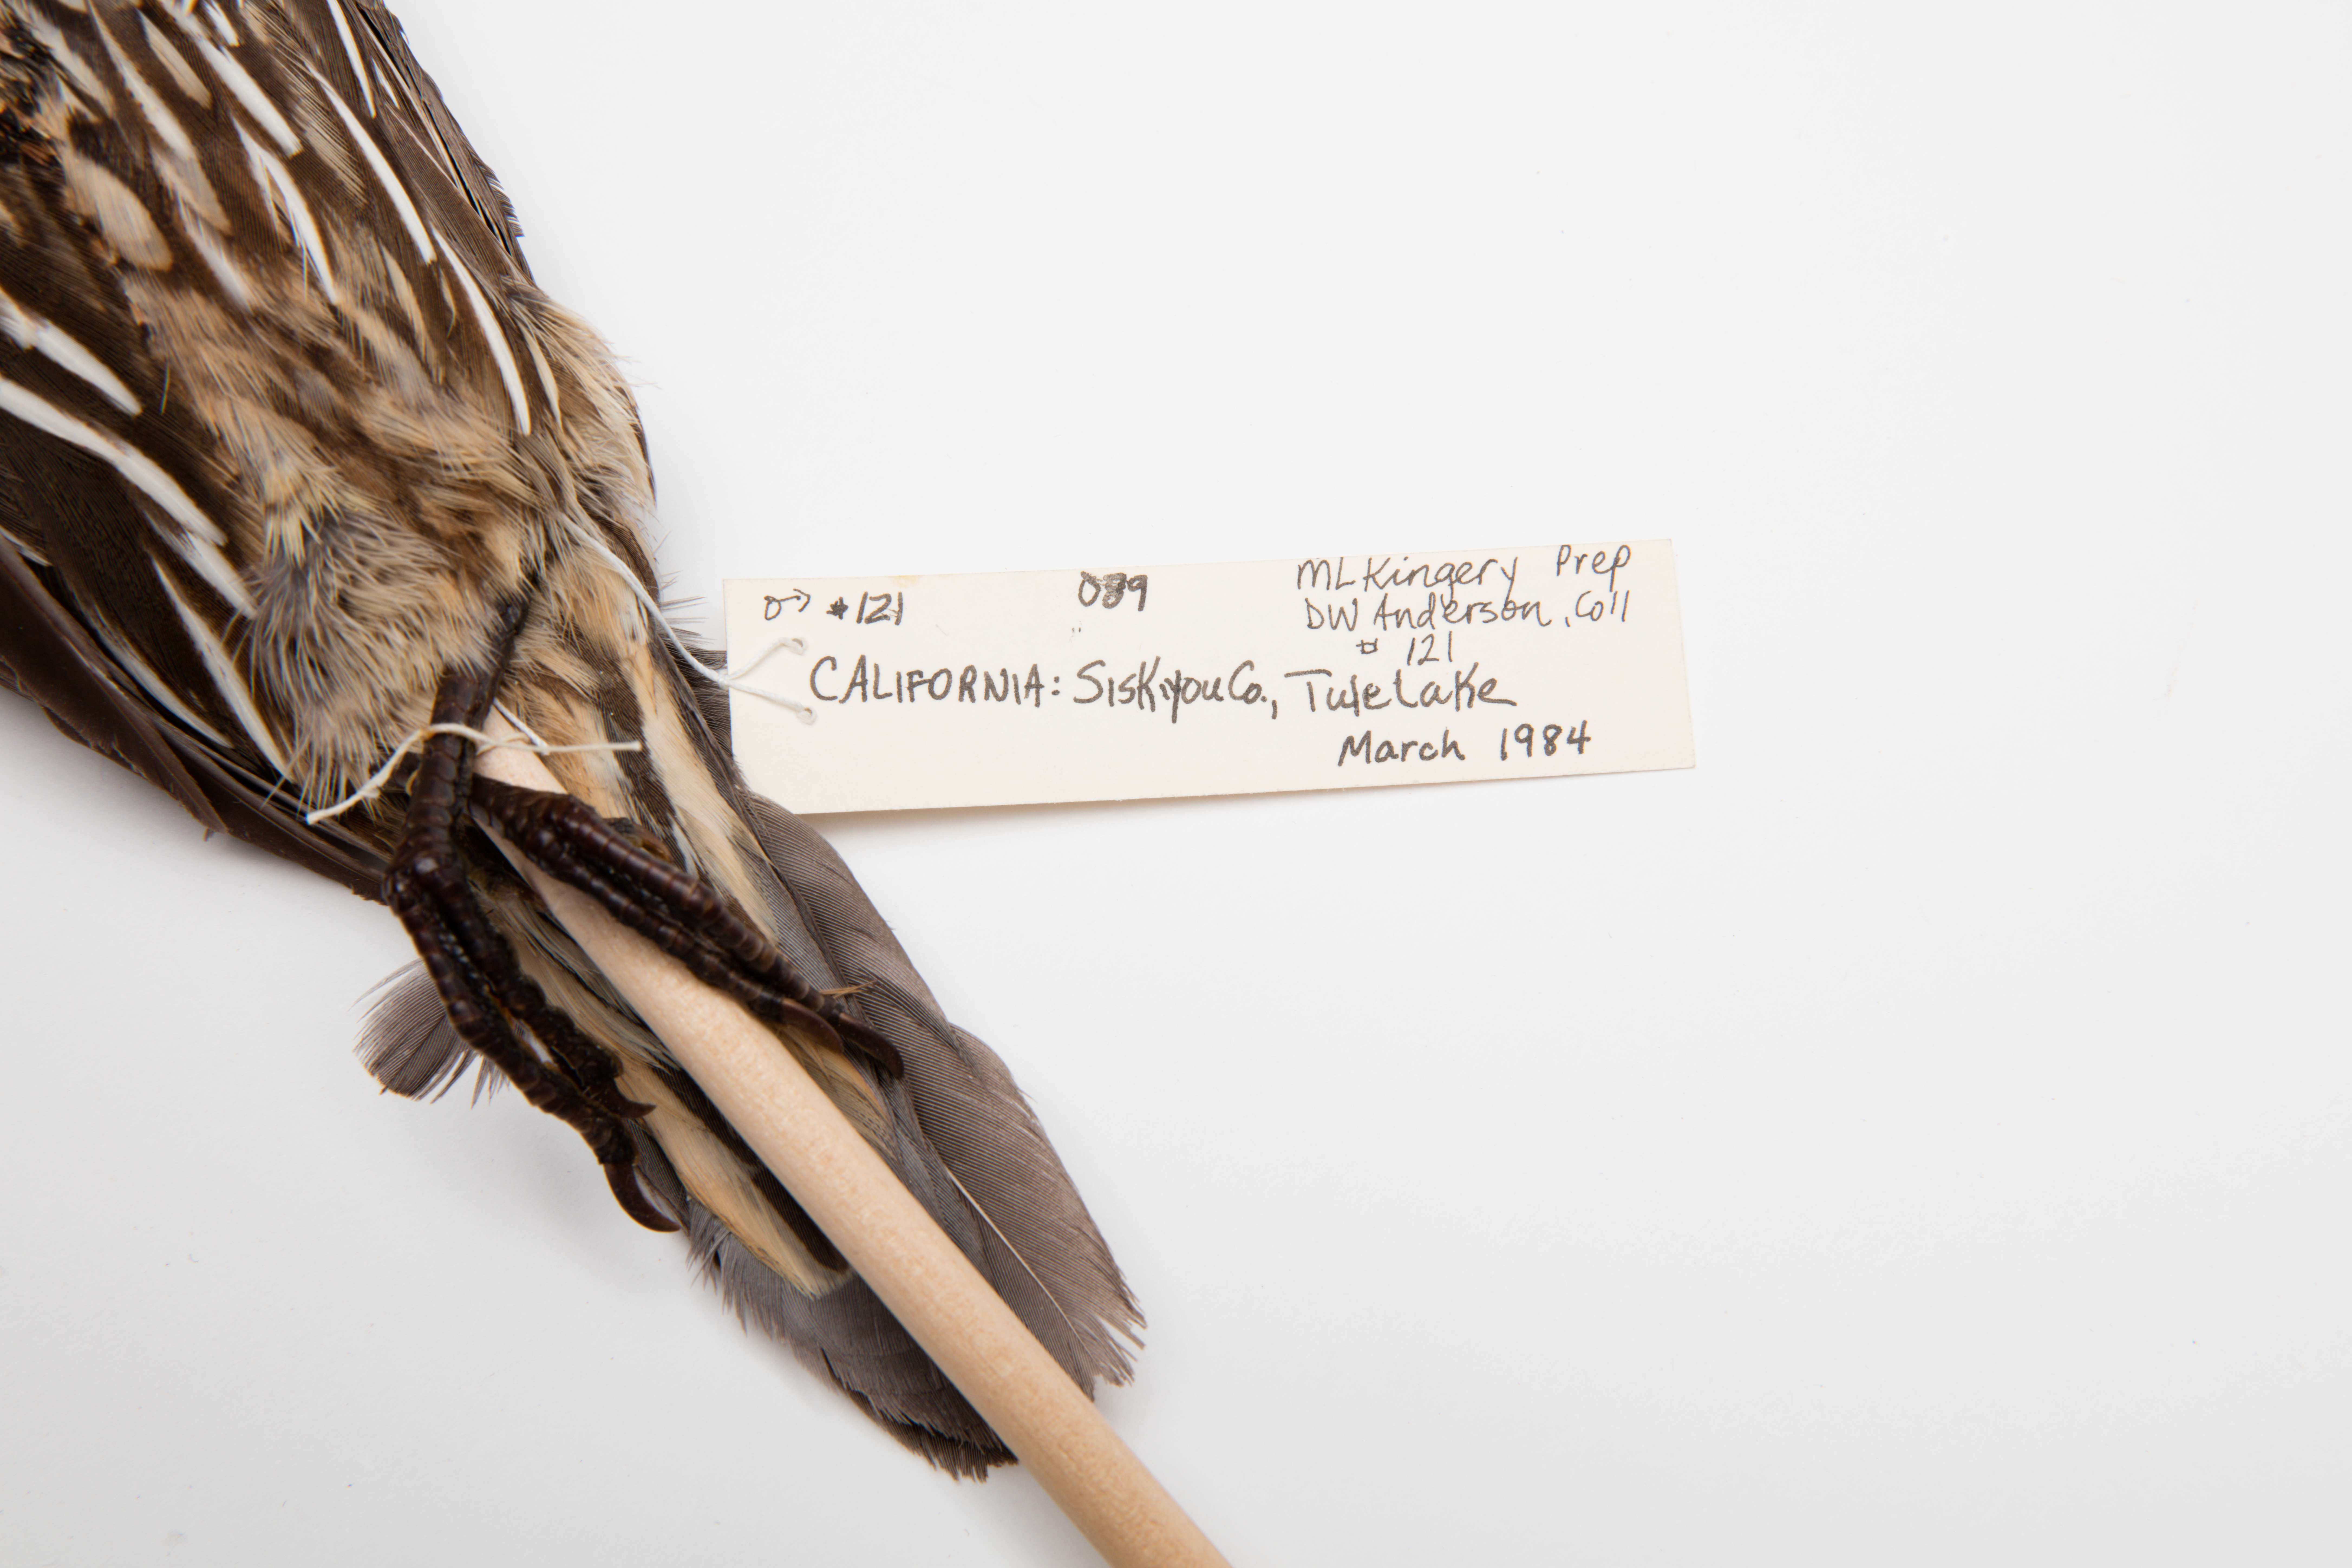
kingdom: Animalia
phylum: Chordata
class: Aves
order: Galliformes
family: Odontophoridae
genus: Callipepla
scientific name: Callipepla californica
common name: California quail
